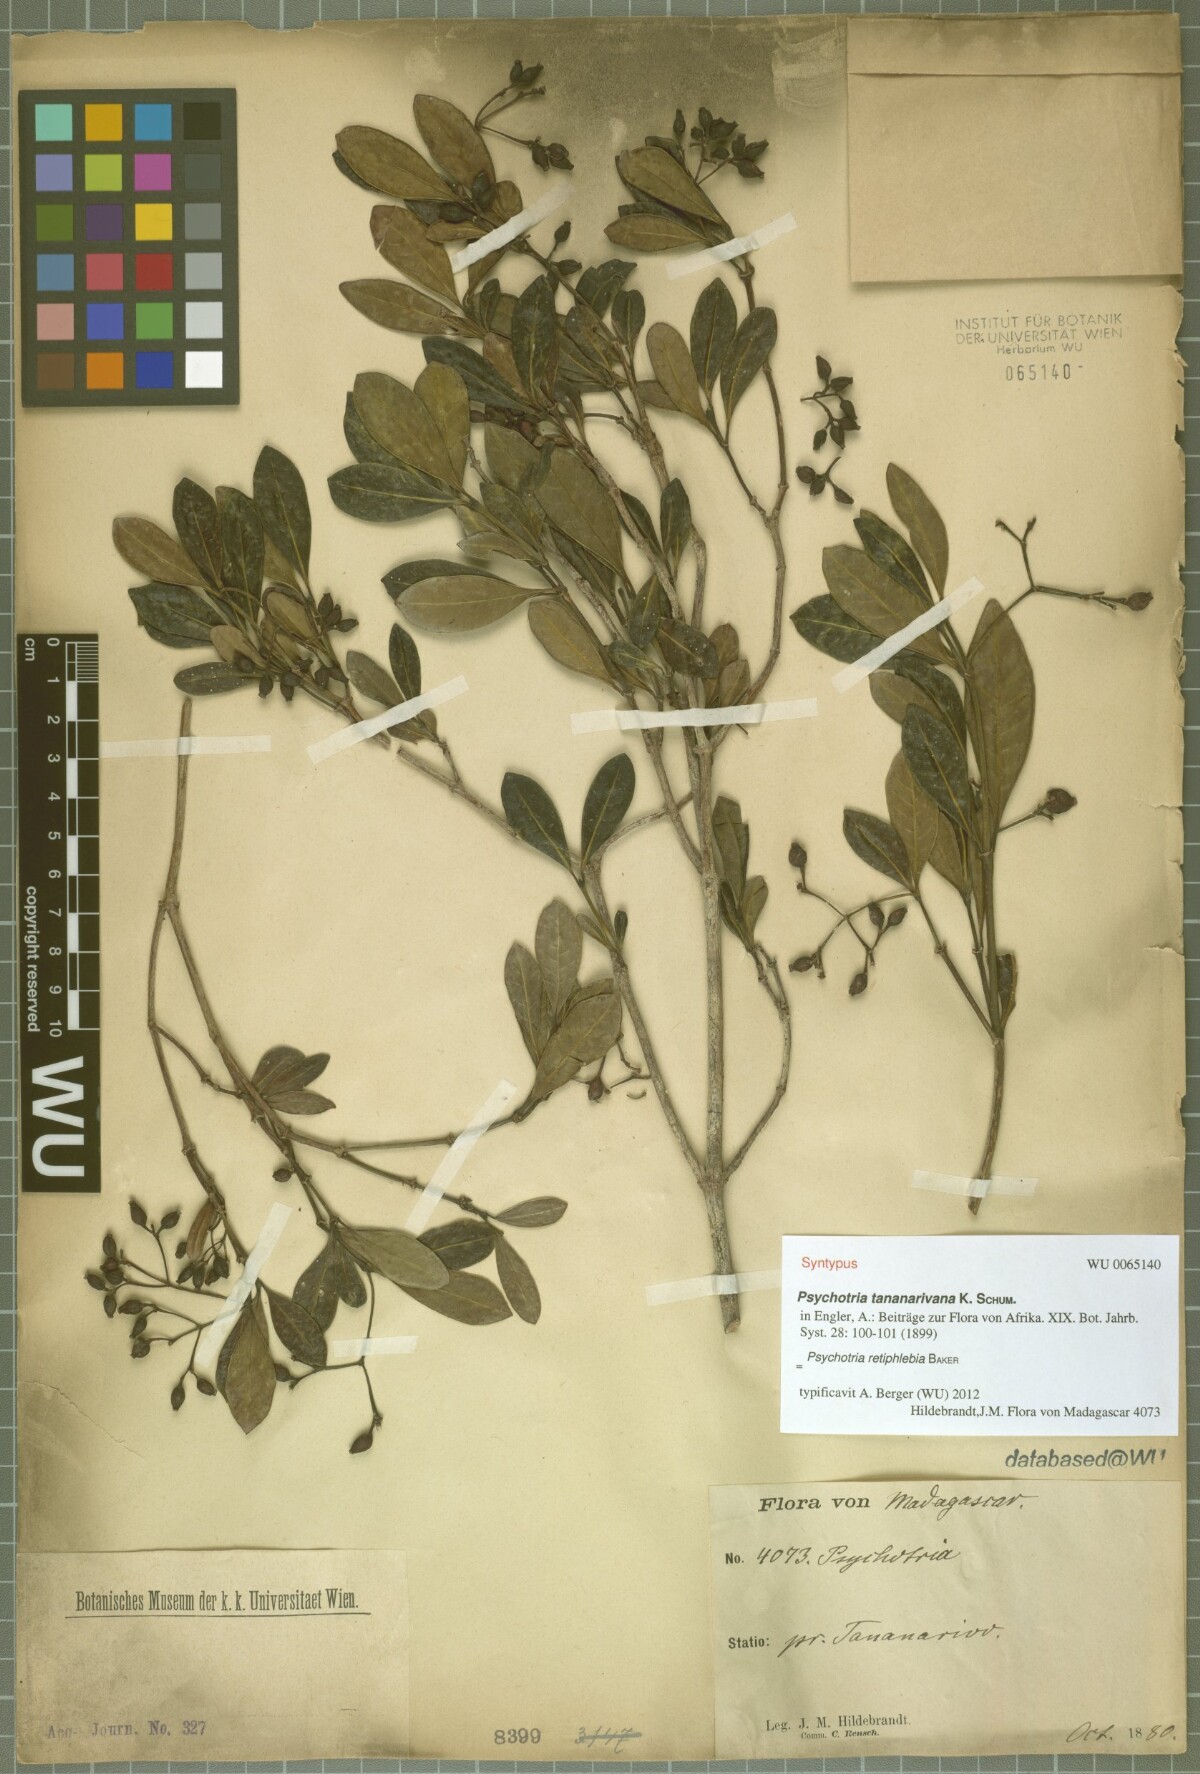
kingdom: Plantae
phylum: Tracheophyta
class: Magnoliopsida
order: Gentianales
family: Rubiaceae
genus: Psychotria
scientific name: Psychotria retiphlebia
